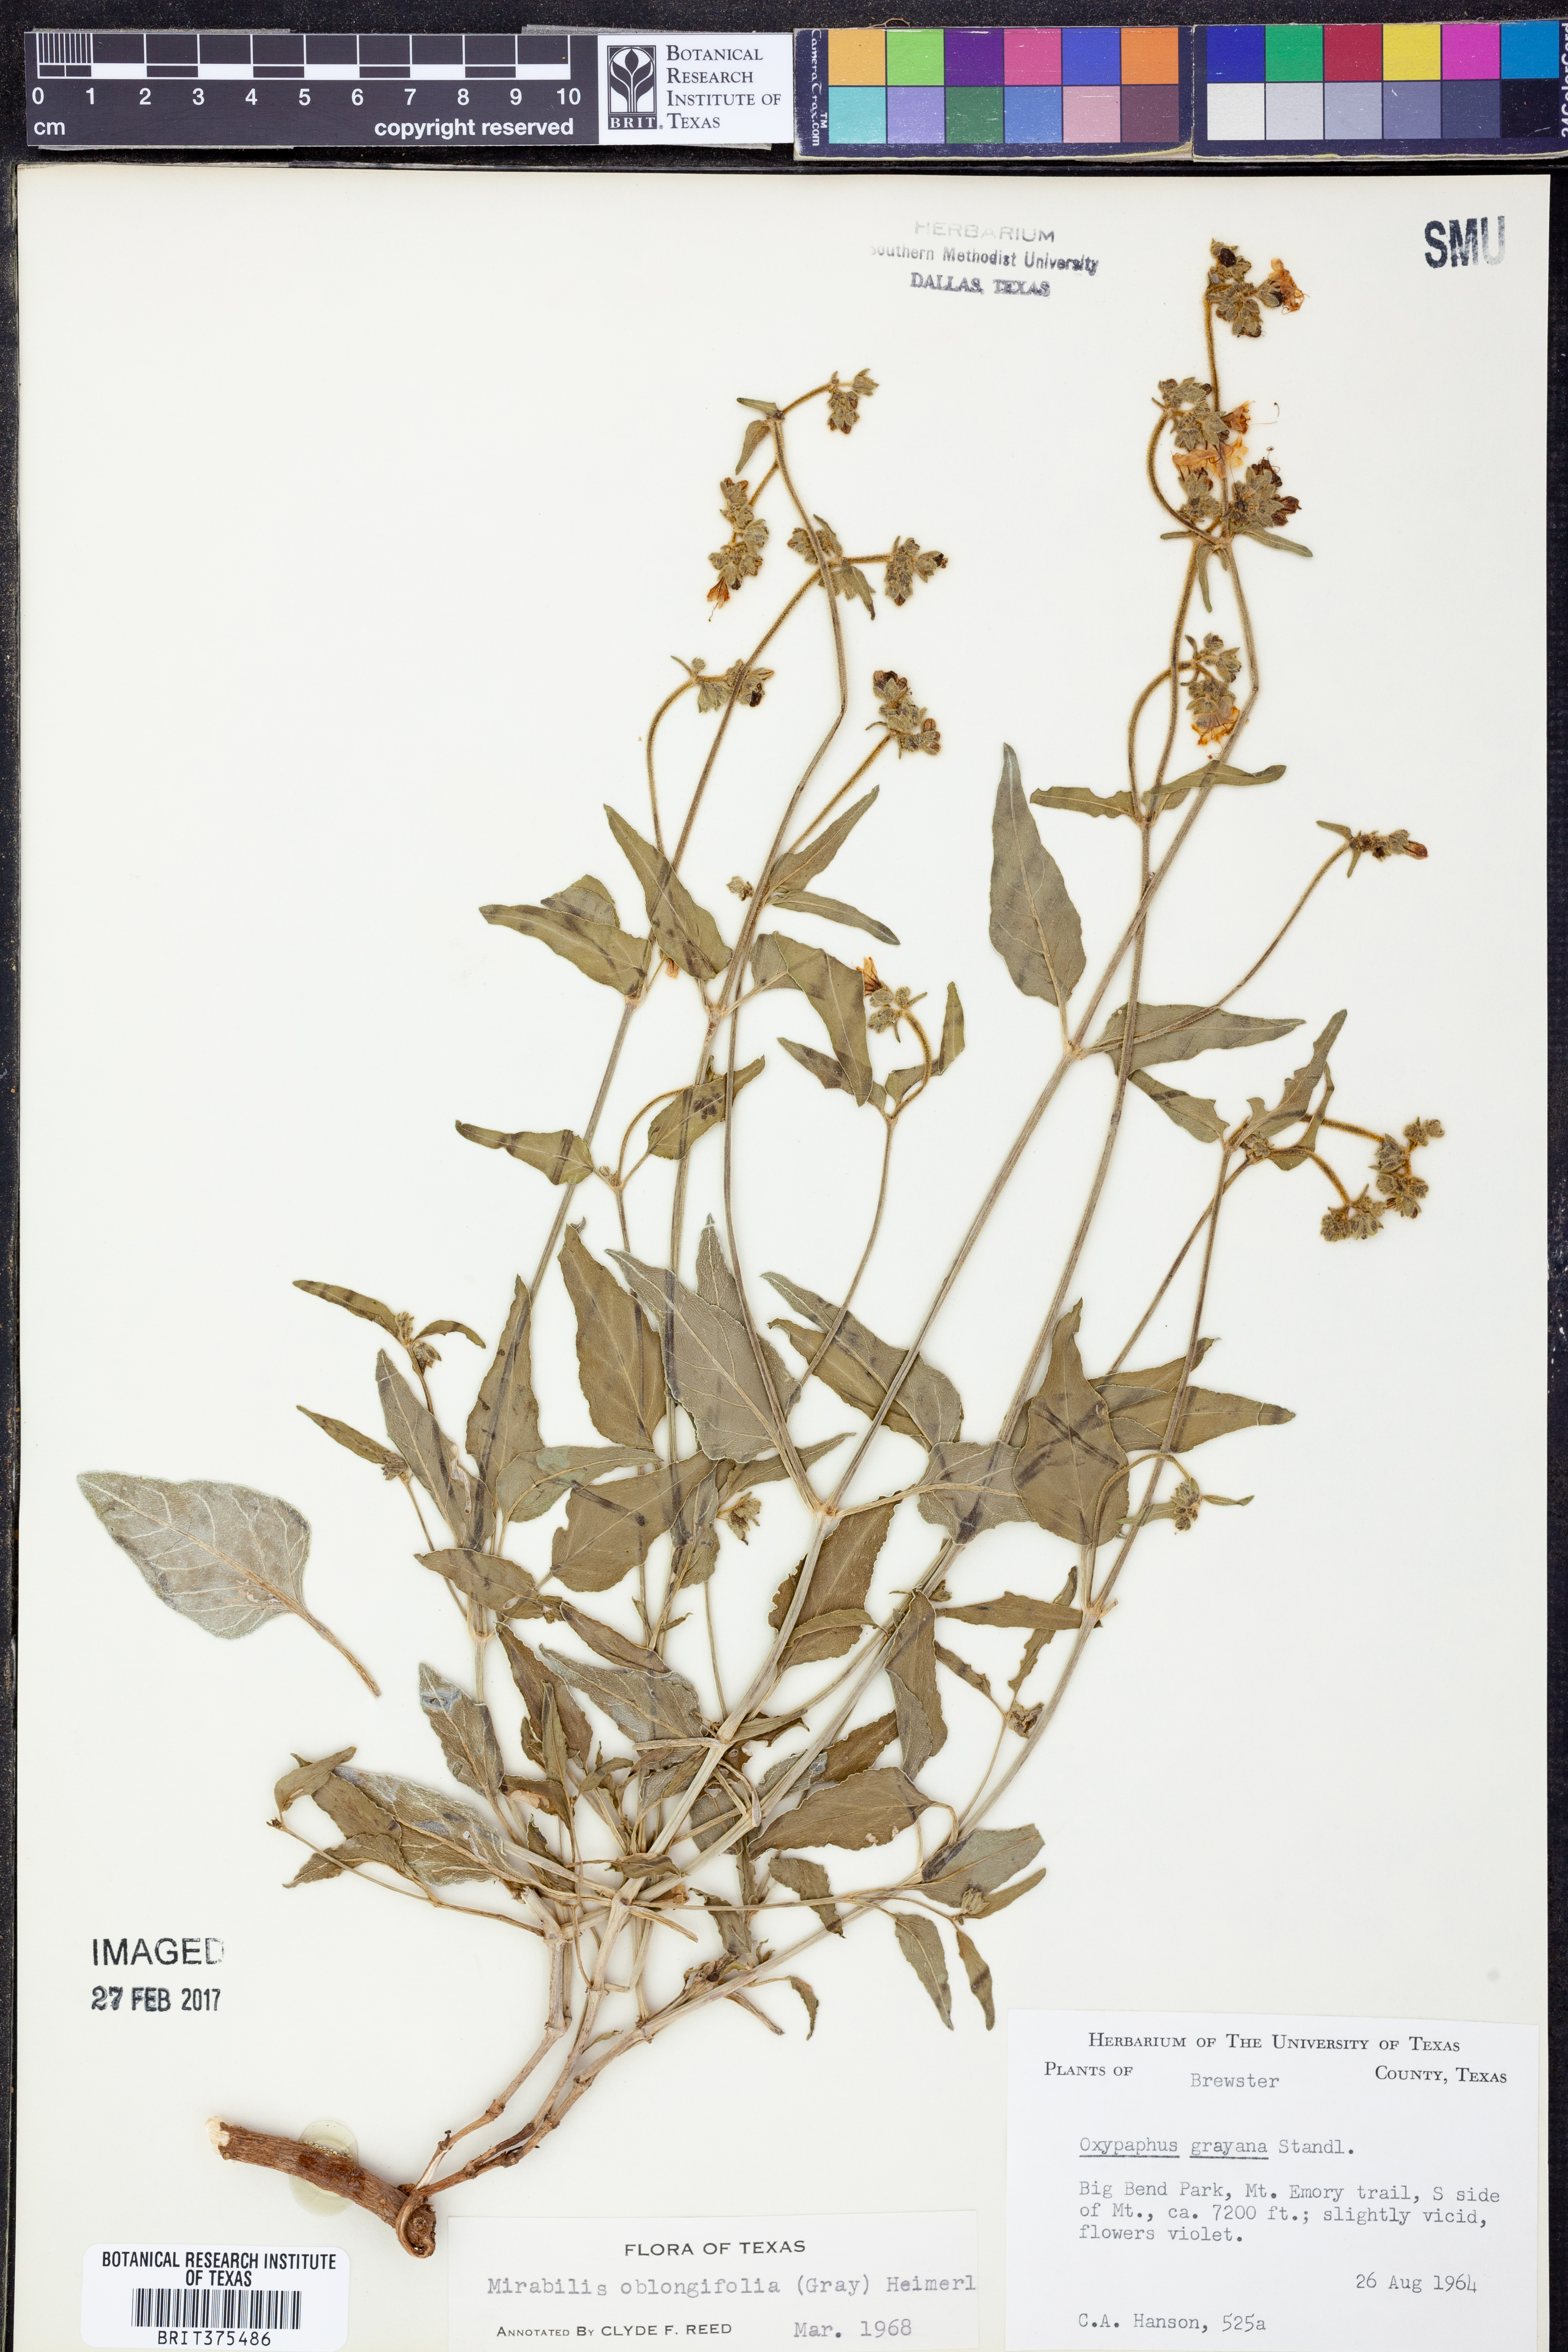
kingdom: Plantae
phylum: Tracheophyta
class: Magnoliopsida
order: Caryophyllales
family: Nyctaginaceae
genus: Mirabilis
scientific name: Mirabilis albida
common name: Hairy four-o'clock
